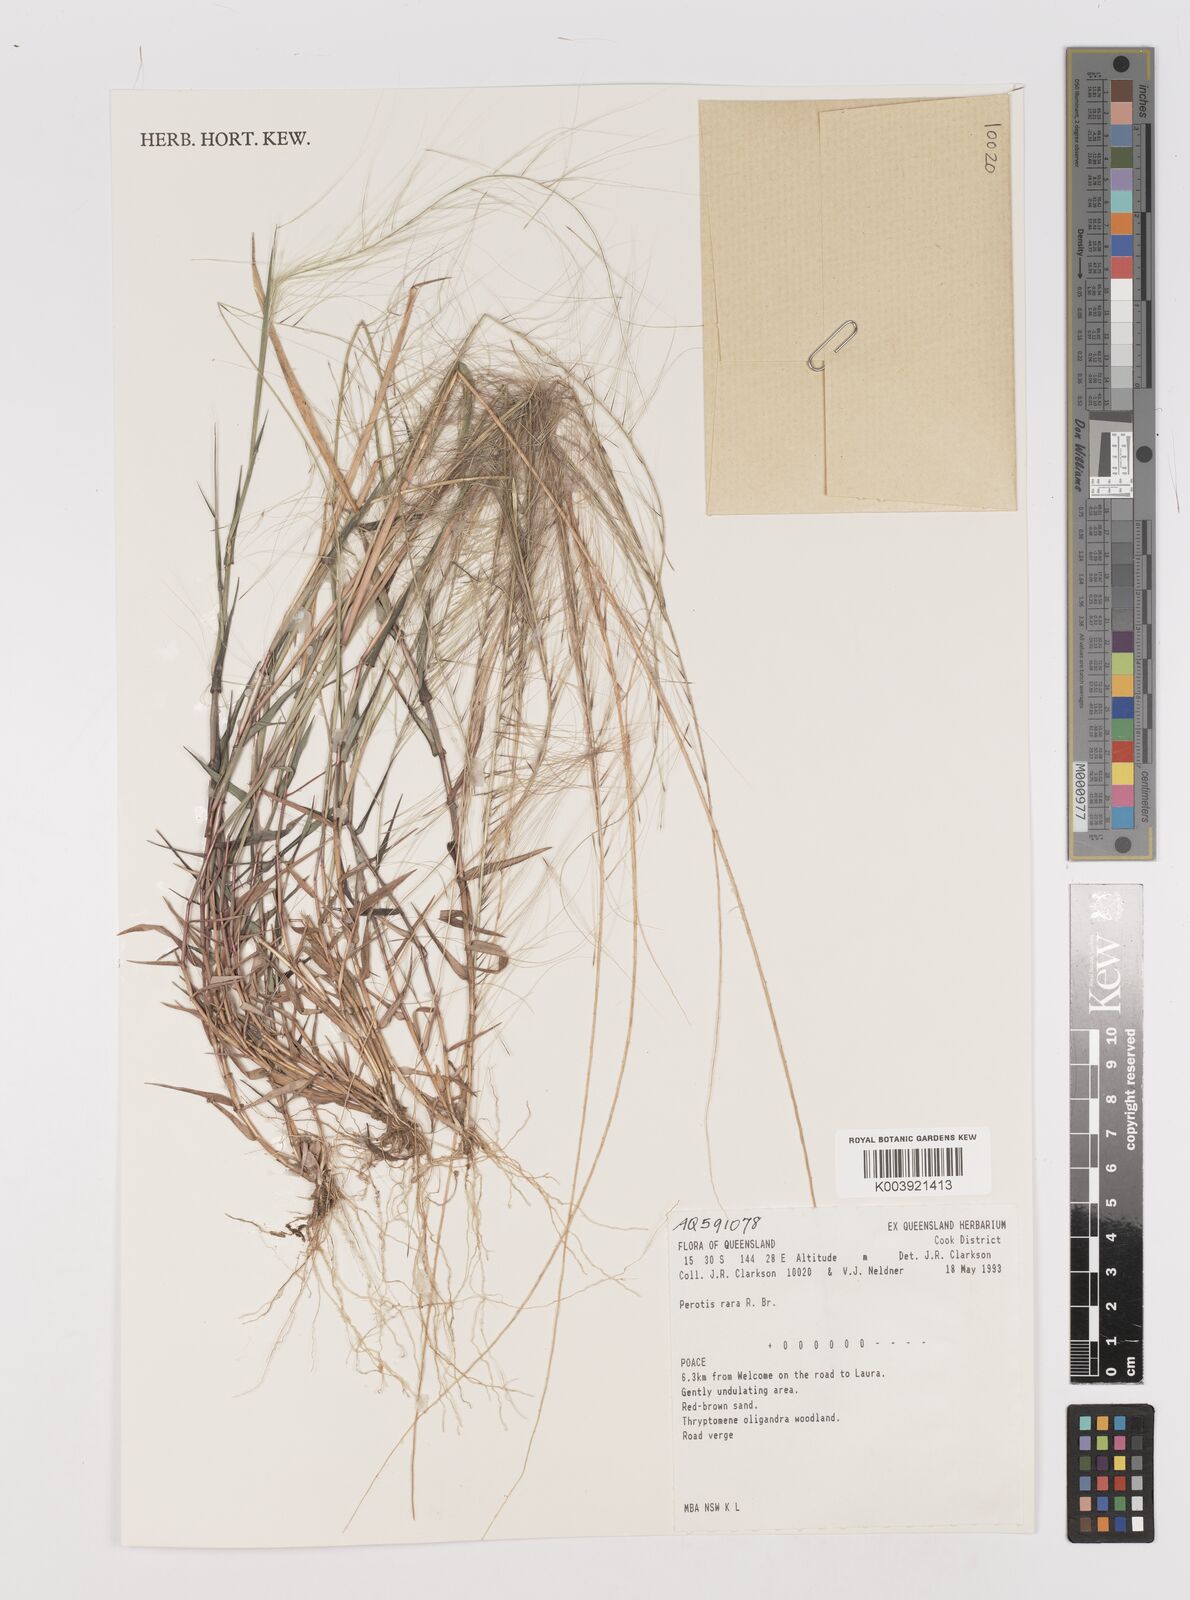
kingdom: Plantae
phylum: Tracheophyta
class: Liliopsida
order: Poales
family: Poaceae
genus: Perotis
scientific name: Perotis rara
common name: Comet grass
